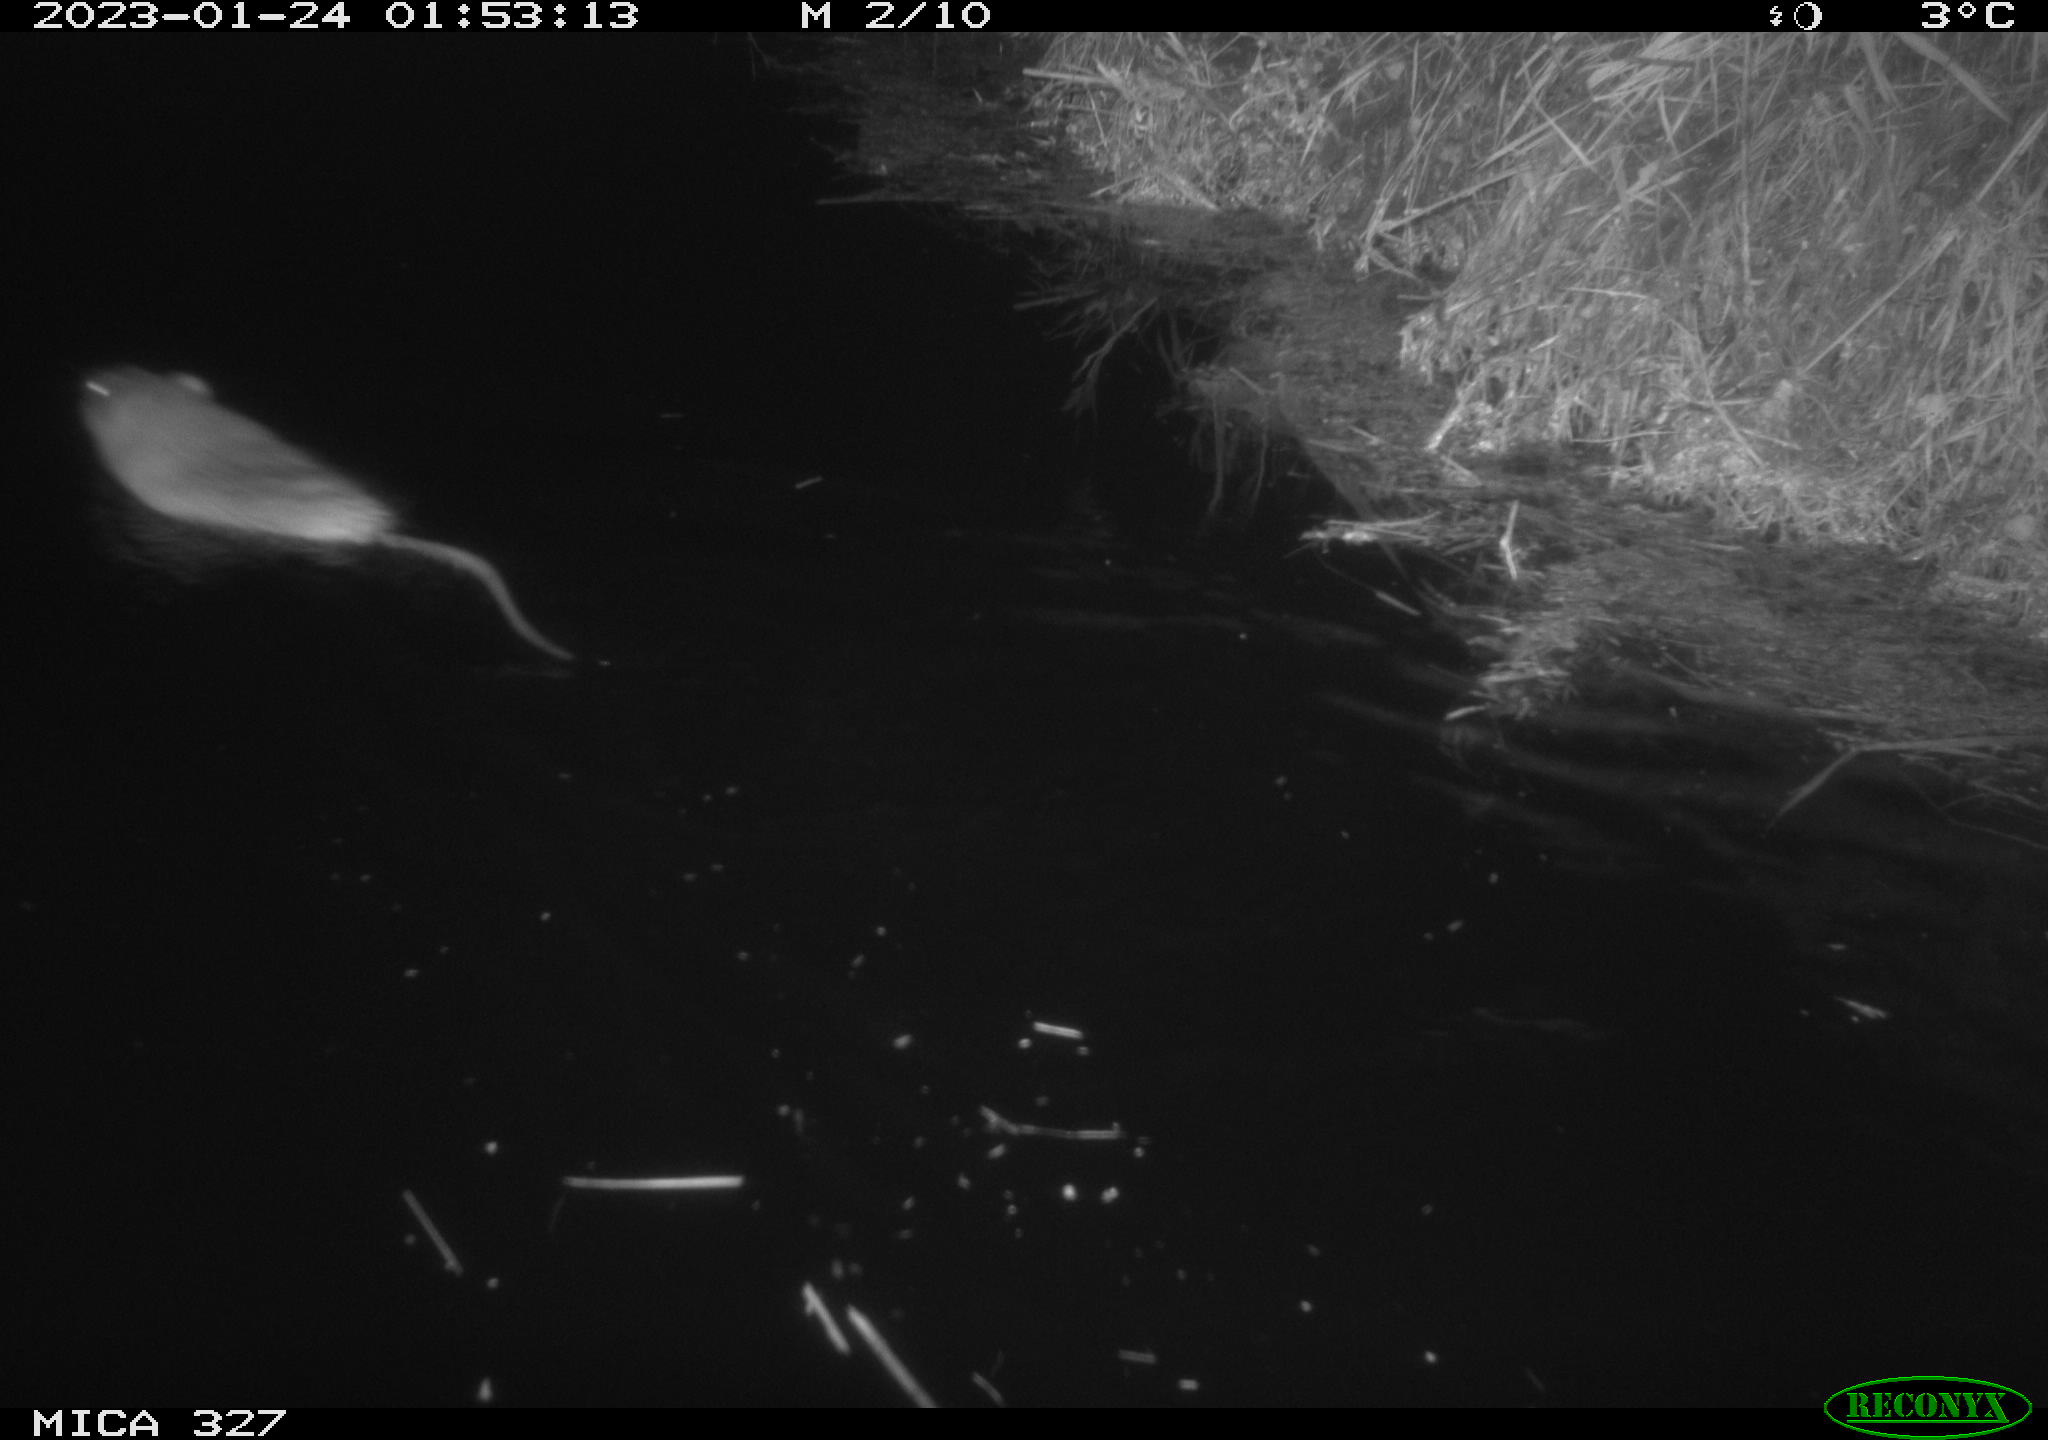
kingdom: Animalia
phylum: Chordata
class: Mammalia
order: Rodentia
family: Cricetidae
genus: Ondatra
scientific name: Ondatra zibethicus
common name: Muskrat
